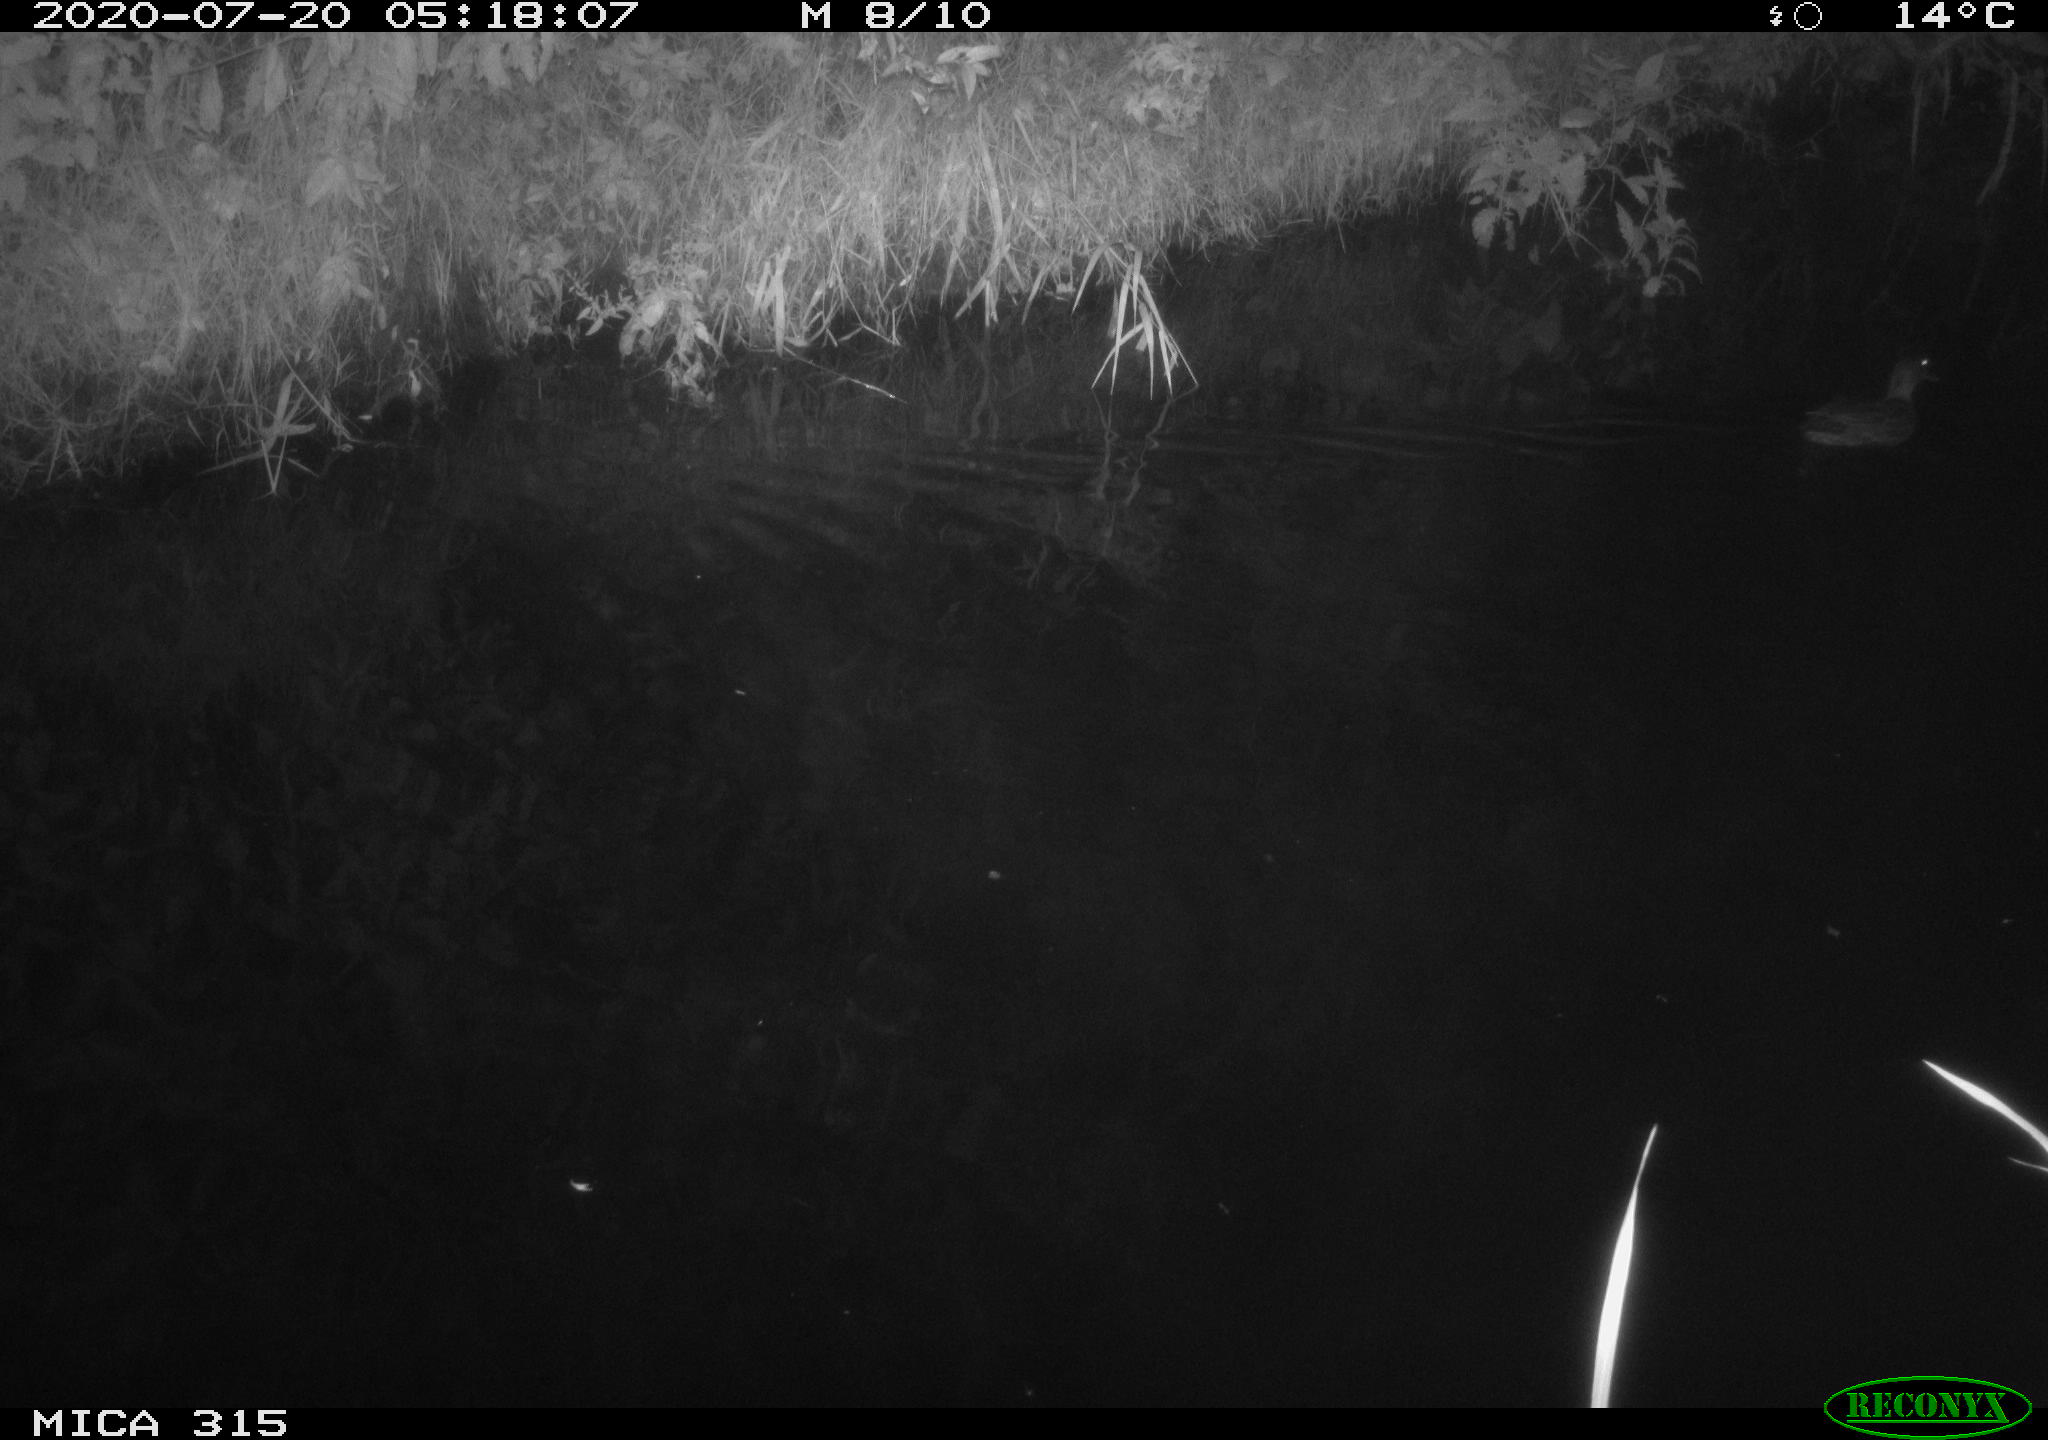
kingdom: Animalia
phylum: Chordata
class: Aves
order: Anseriformes
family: Anatidae
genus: Anas
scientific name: Anas platyrhynchos
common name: Mallard
